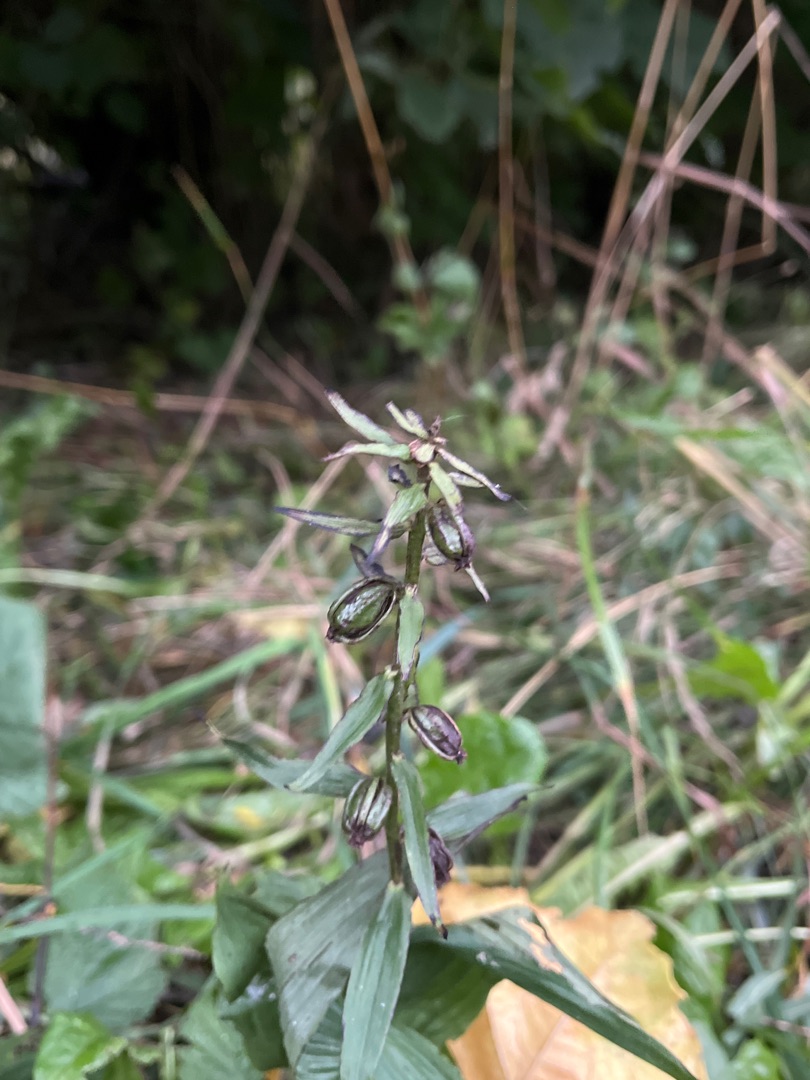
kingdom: Plantae
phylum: Tracheophyta
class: Liliopsida
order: Asparagales
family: Orchidaceae
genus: Epipactis
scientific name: Epipactis helleborine
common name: Skov-hullæbe
